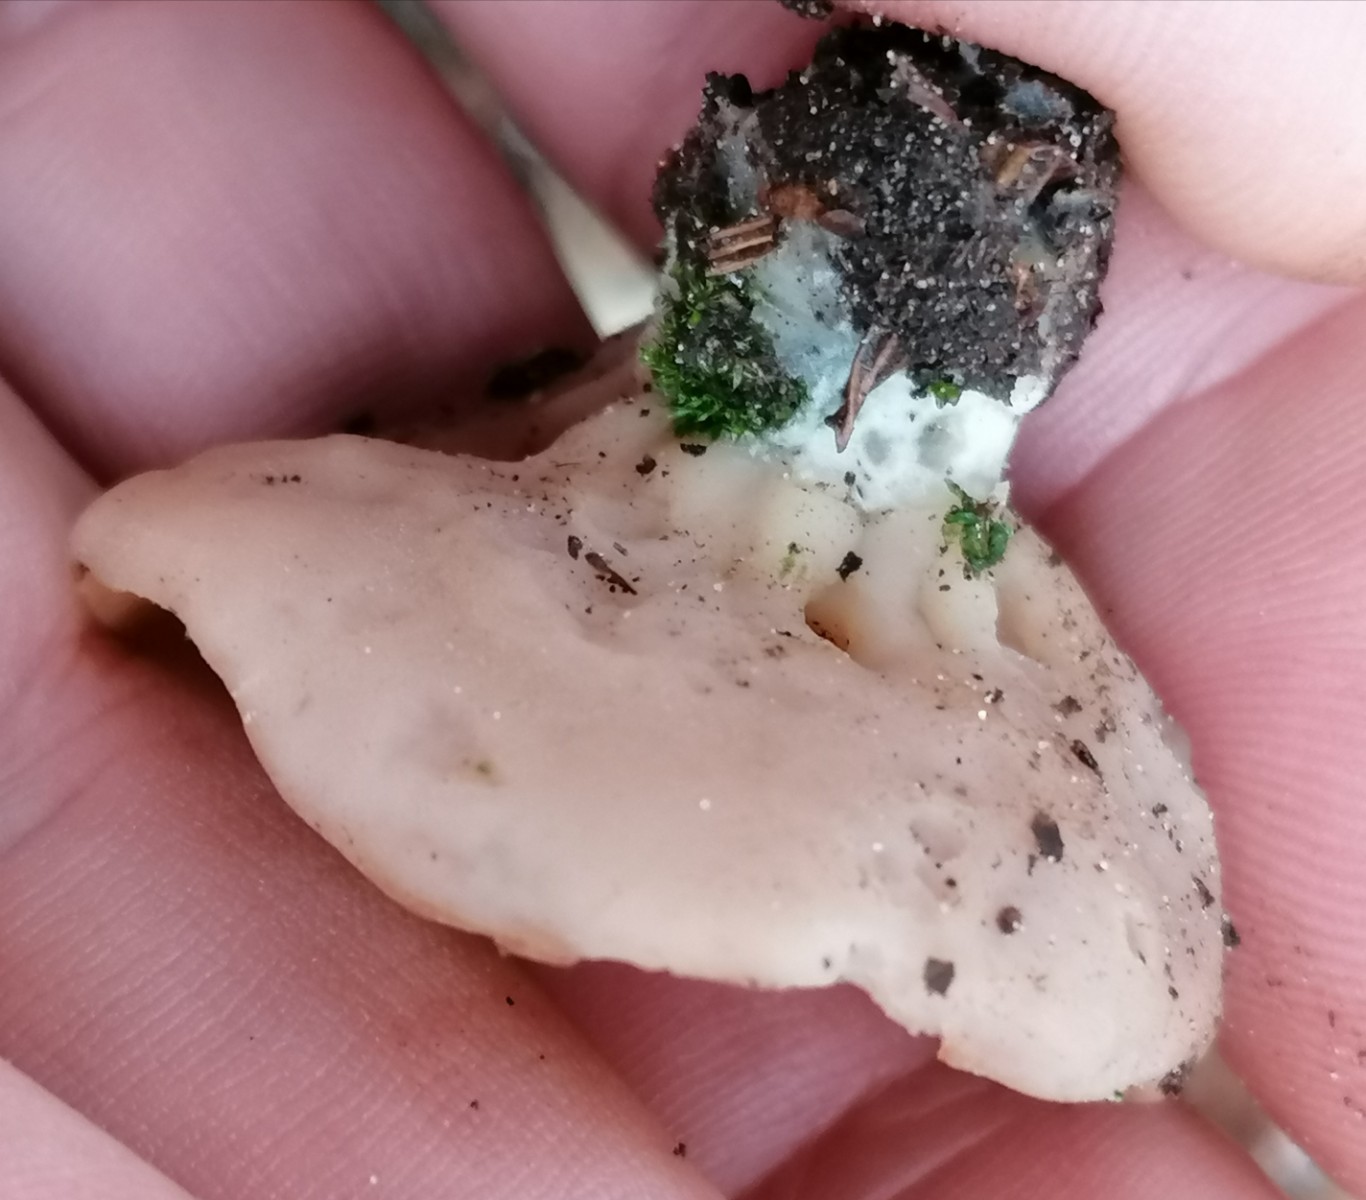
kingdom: Fungi
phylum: Ascomycota
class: Pezizomycetes
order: Pezizales
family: Discinaceae
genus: Discina
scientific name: Discina ancilis
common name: udbredt stenmorkel
